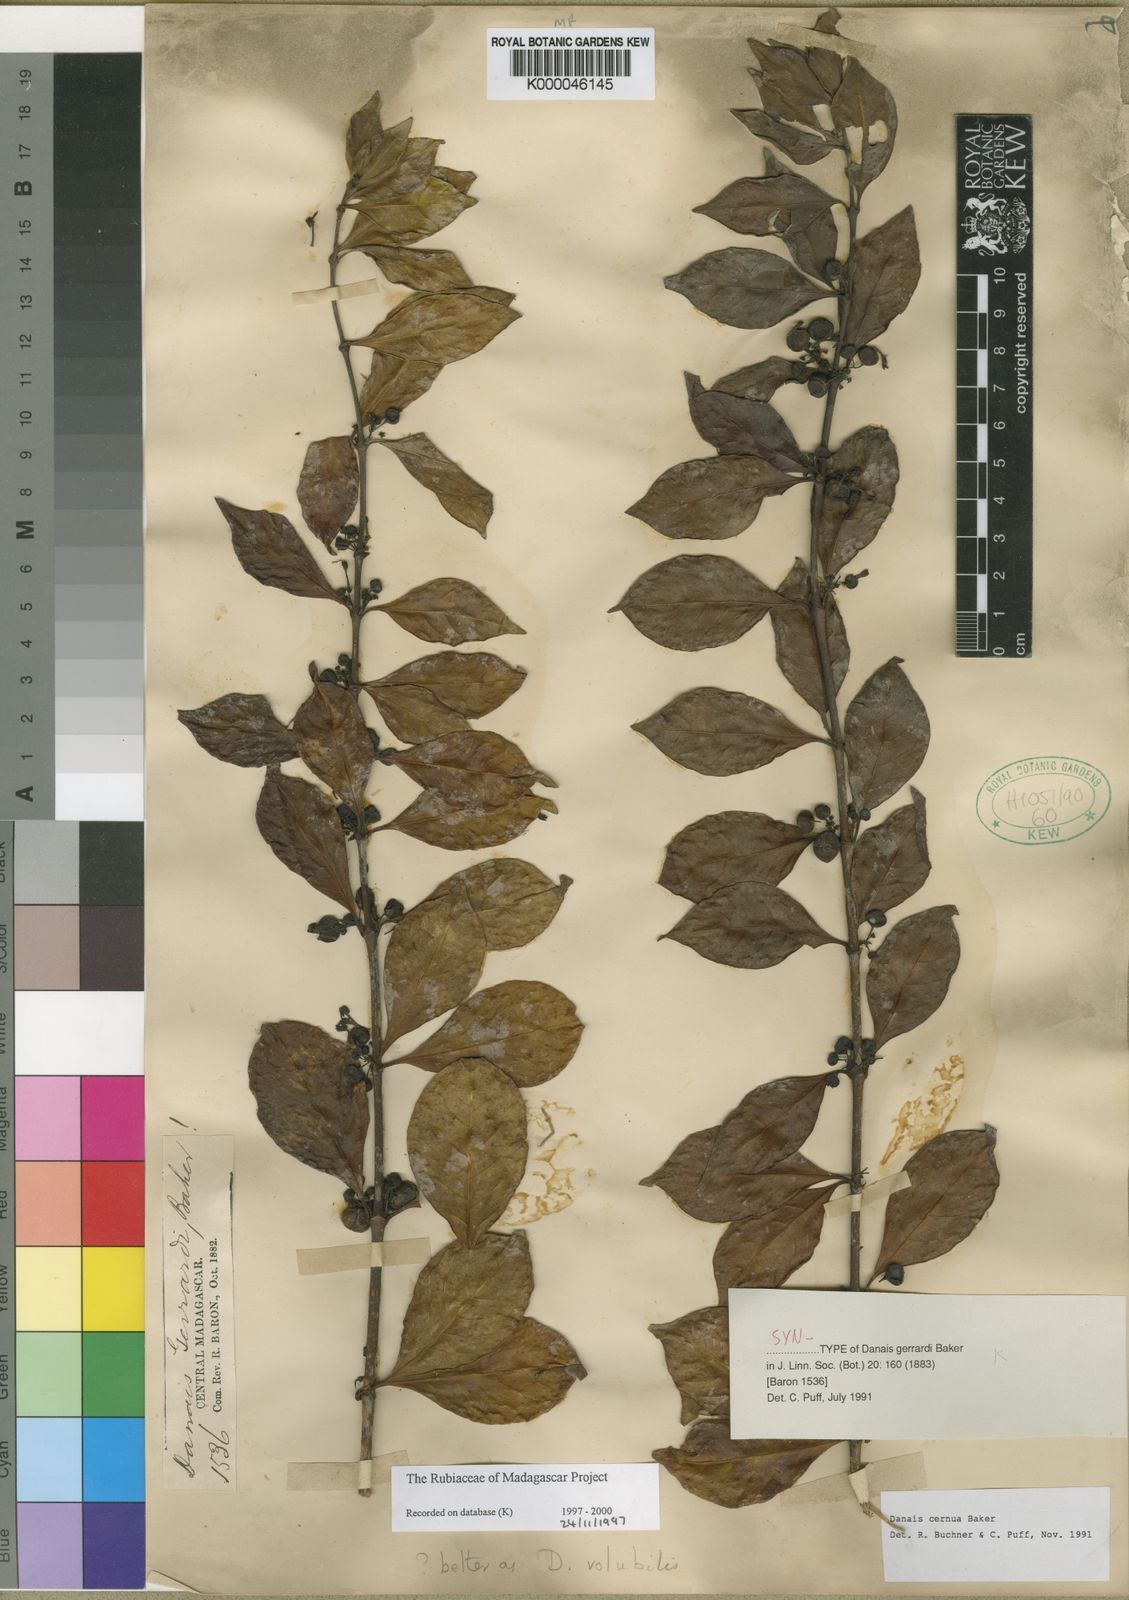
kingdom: Plantae
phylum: Tracheophyta
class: Magnoliopsida
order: Gentianales
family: Rubiaceae
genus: Danais
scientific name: Danais cernua
